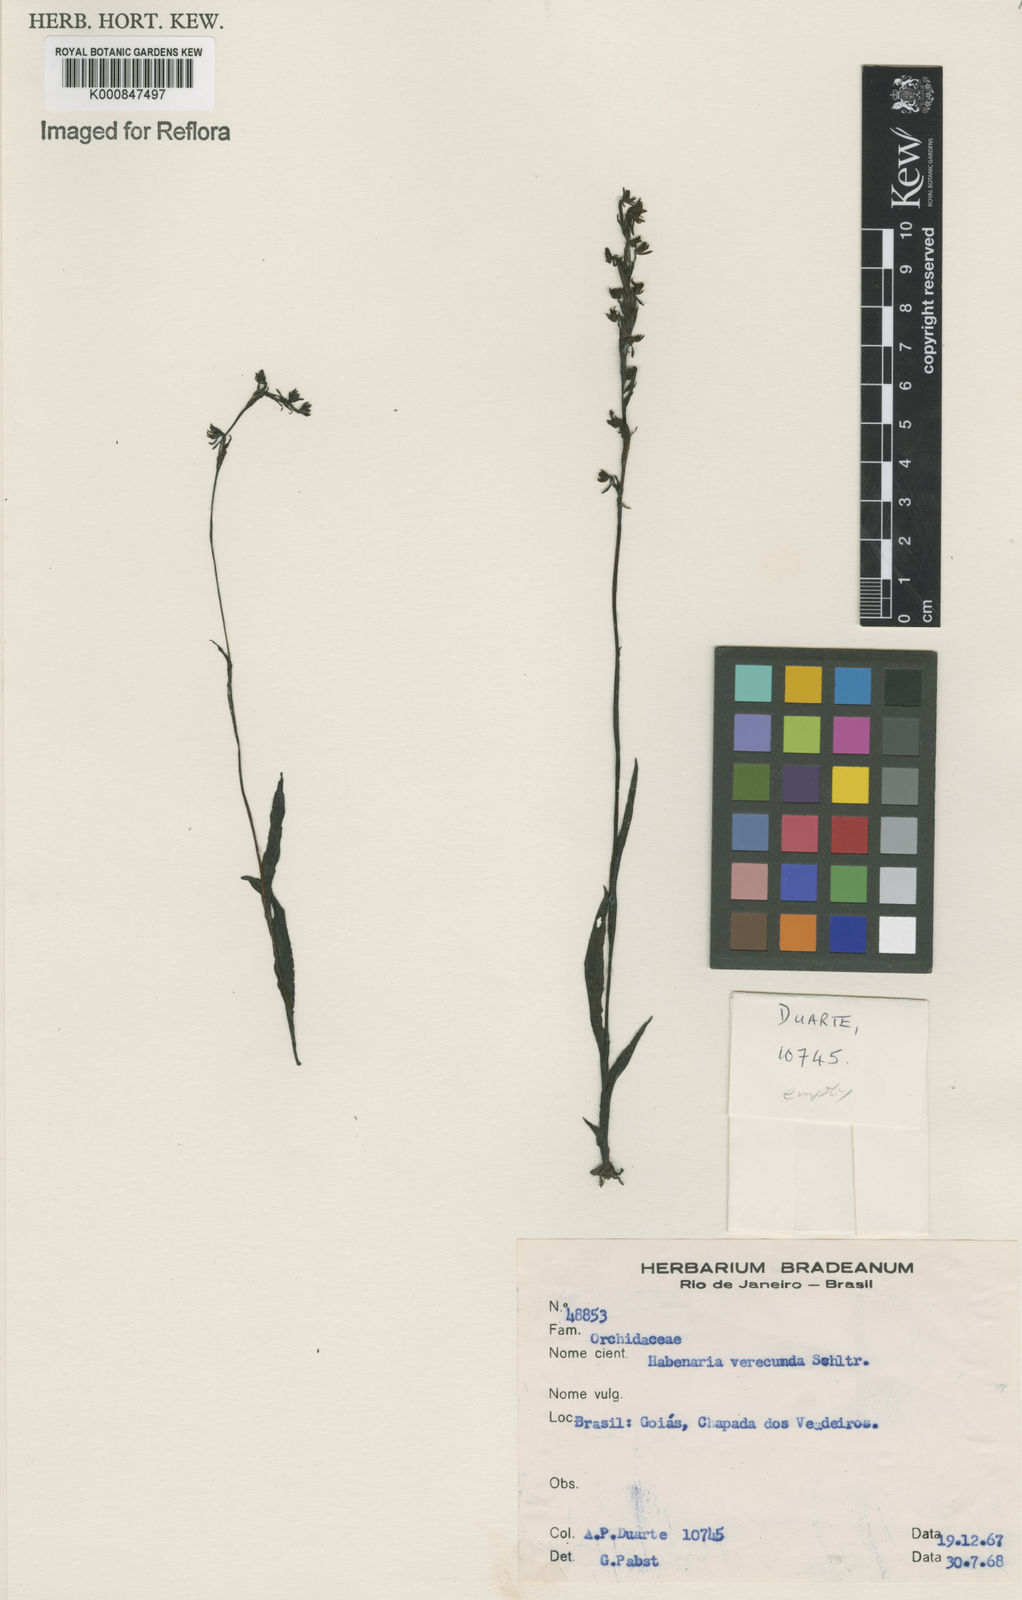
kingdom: Plantae
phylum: Tracheophyta
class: Liliopsida
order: Asparagales
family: Orchidaceae
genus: Habenaria
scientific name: Habenaria wercklei
